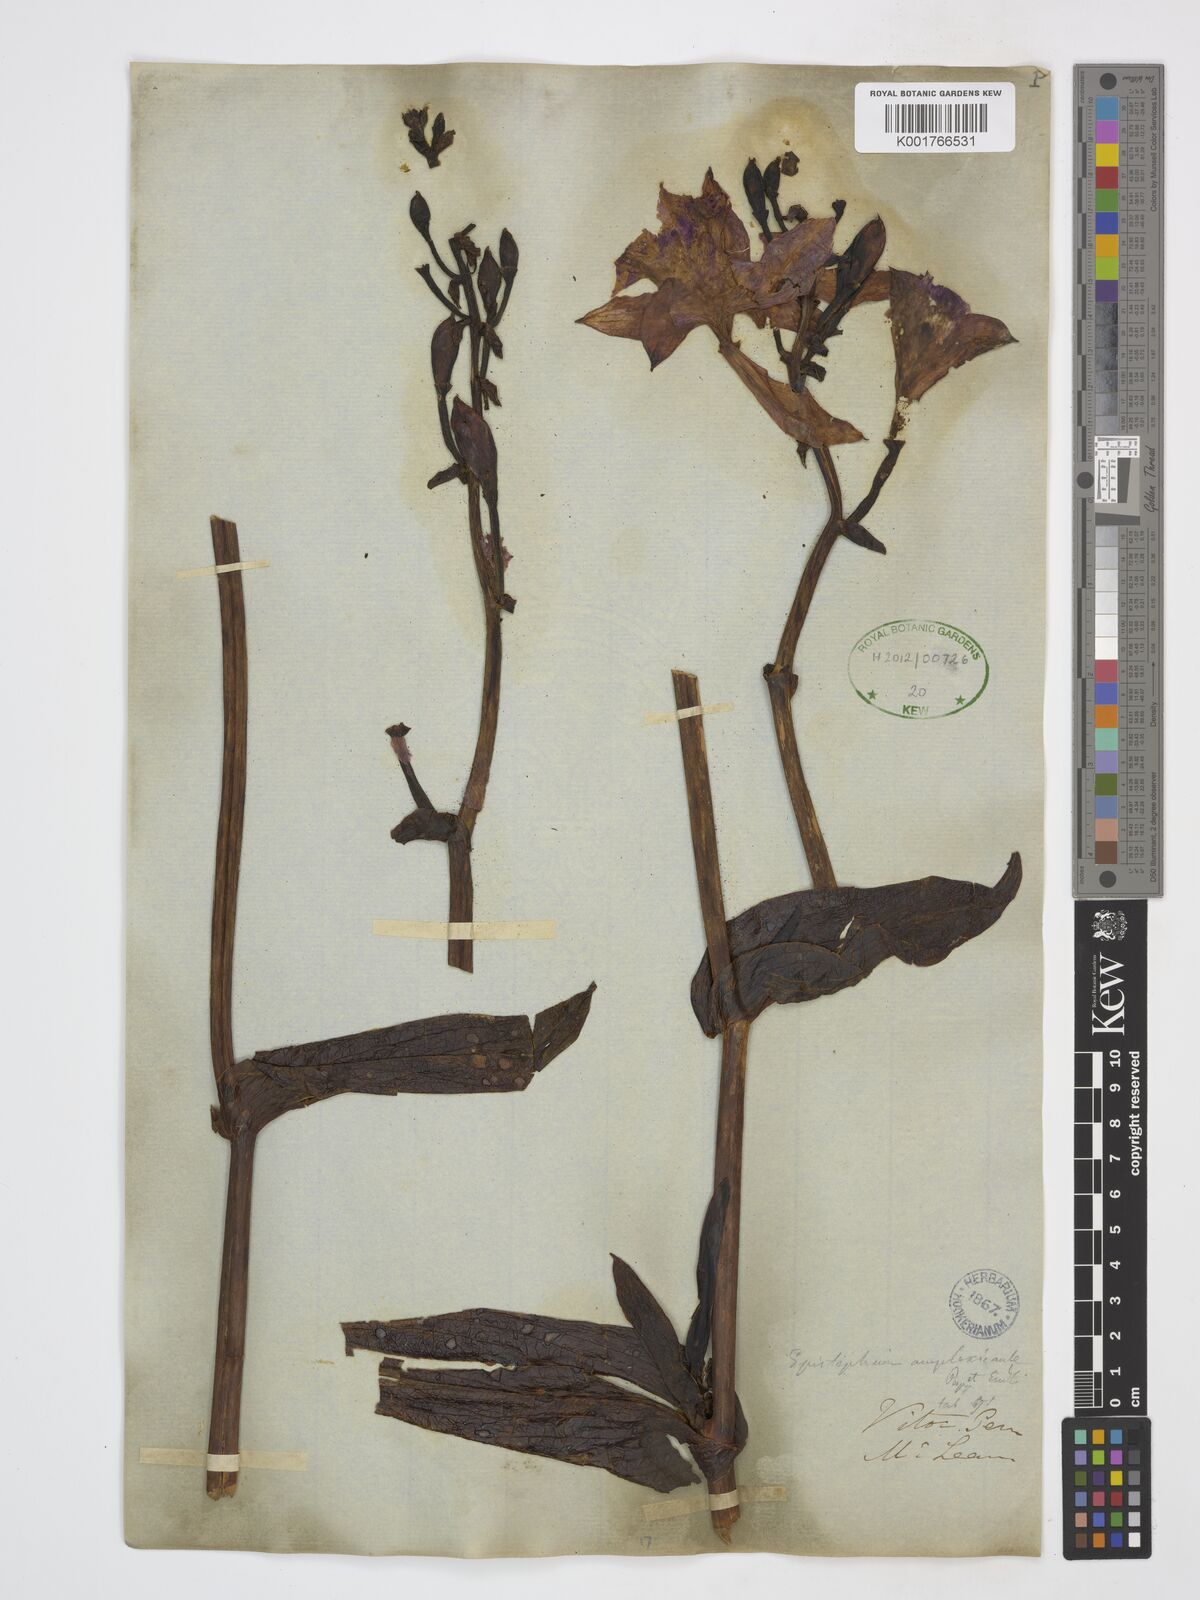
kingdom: Plantae
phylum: Tracheophyta
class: Liliopsida
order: Asparagales
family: Orchidaceae
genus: Epistephium
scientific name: Epistephium amplexicaule
